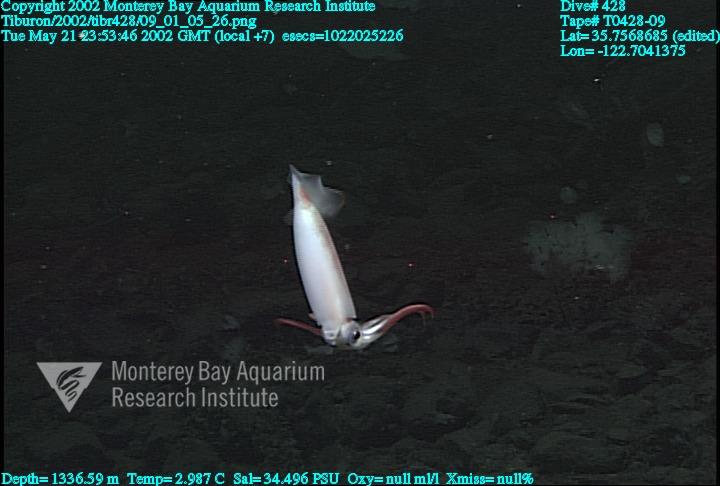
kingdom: Animalia
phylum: Porifera
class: Hexactinellida
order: Sceptrulophora
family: Farreidae
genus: Farrea
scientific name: Farrea occa
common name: Reversed glass sponge
